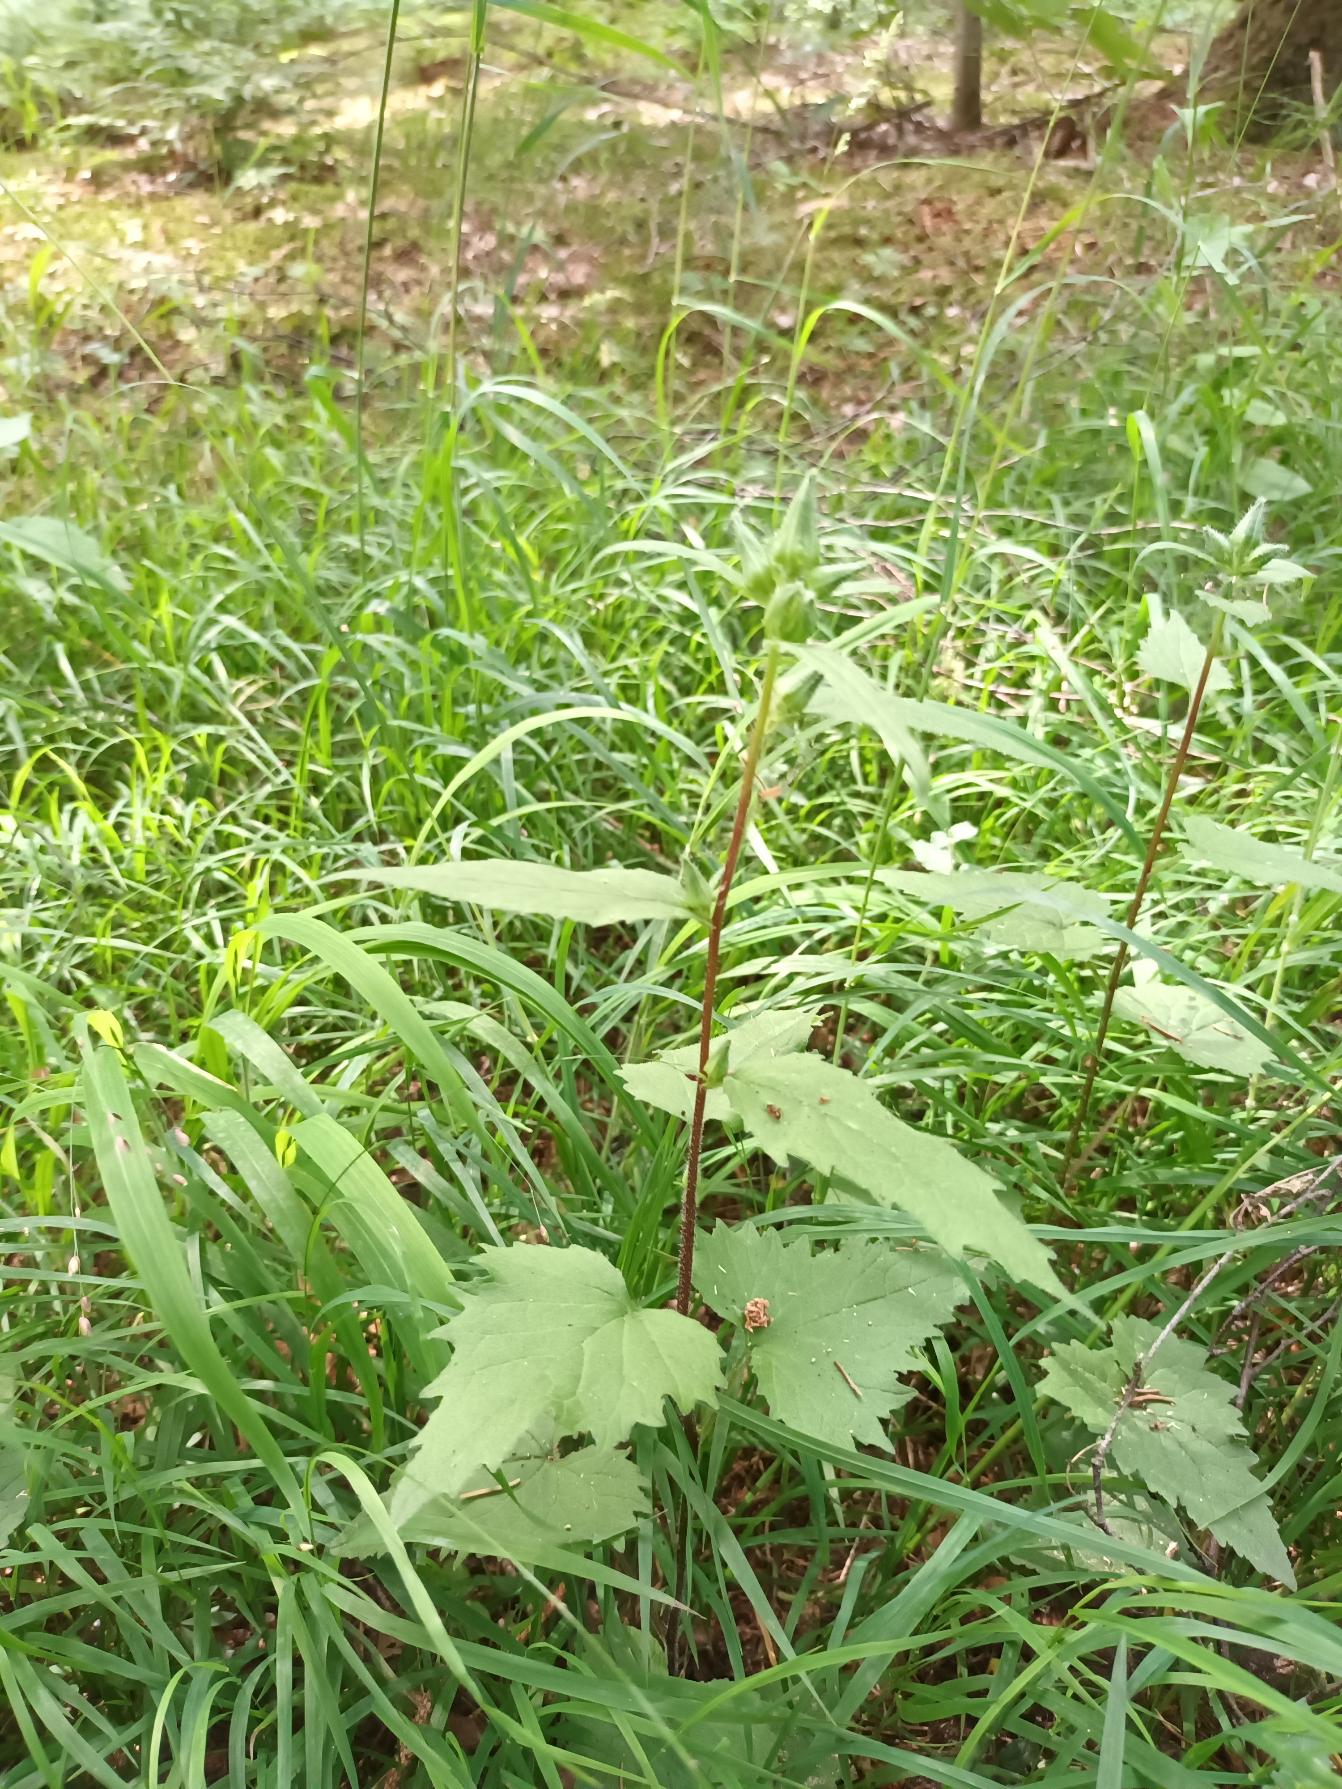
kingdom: Plantae
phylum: Tracheophyta
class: Magnoliopsida
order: Asterales
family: Campanulaceae
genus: Campanula
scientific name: Campanula trachelium
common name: Nælde-klokke
